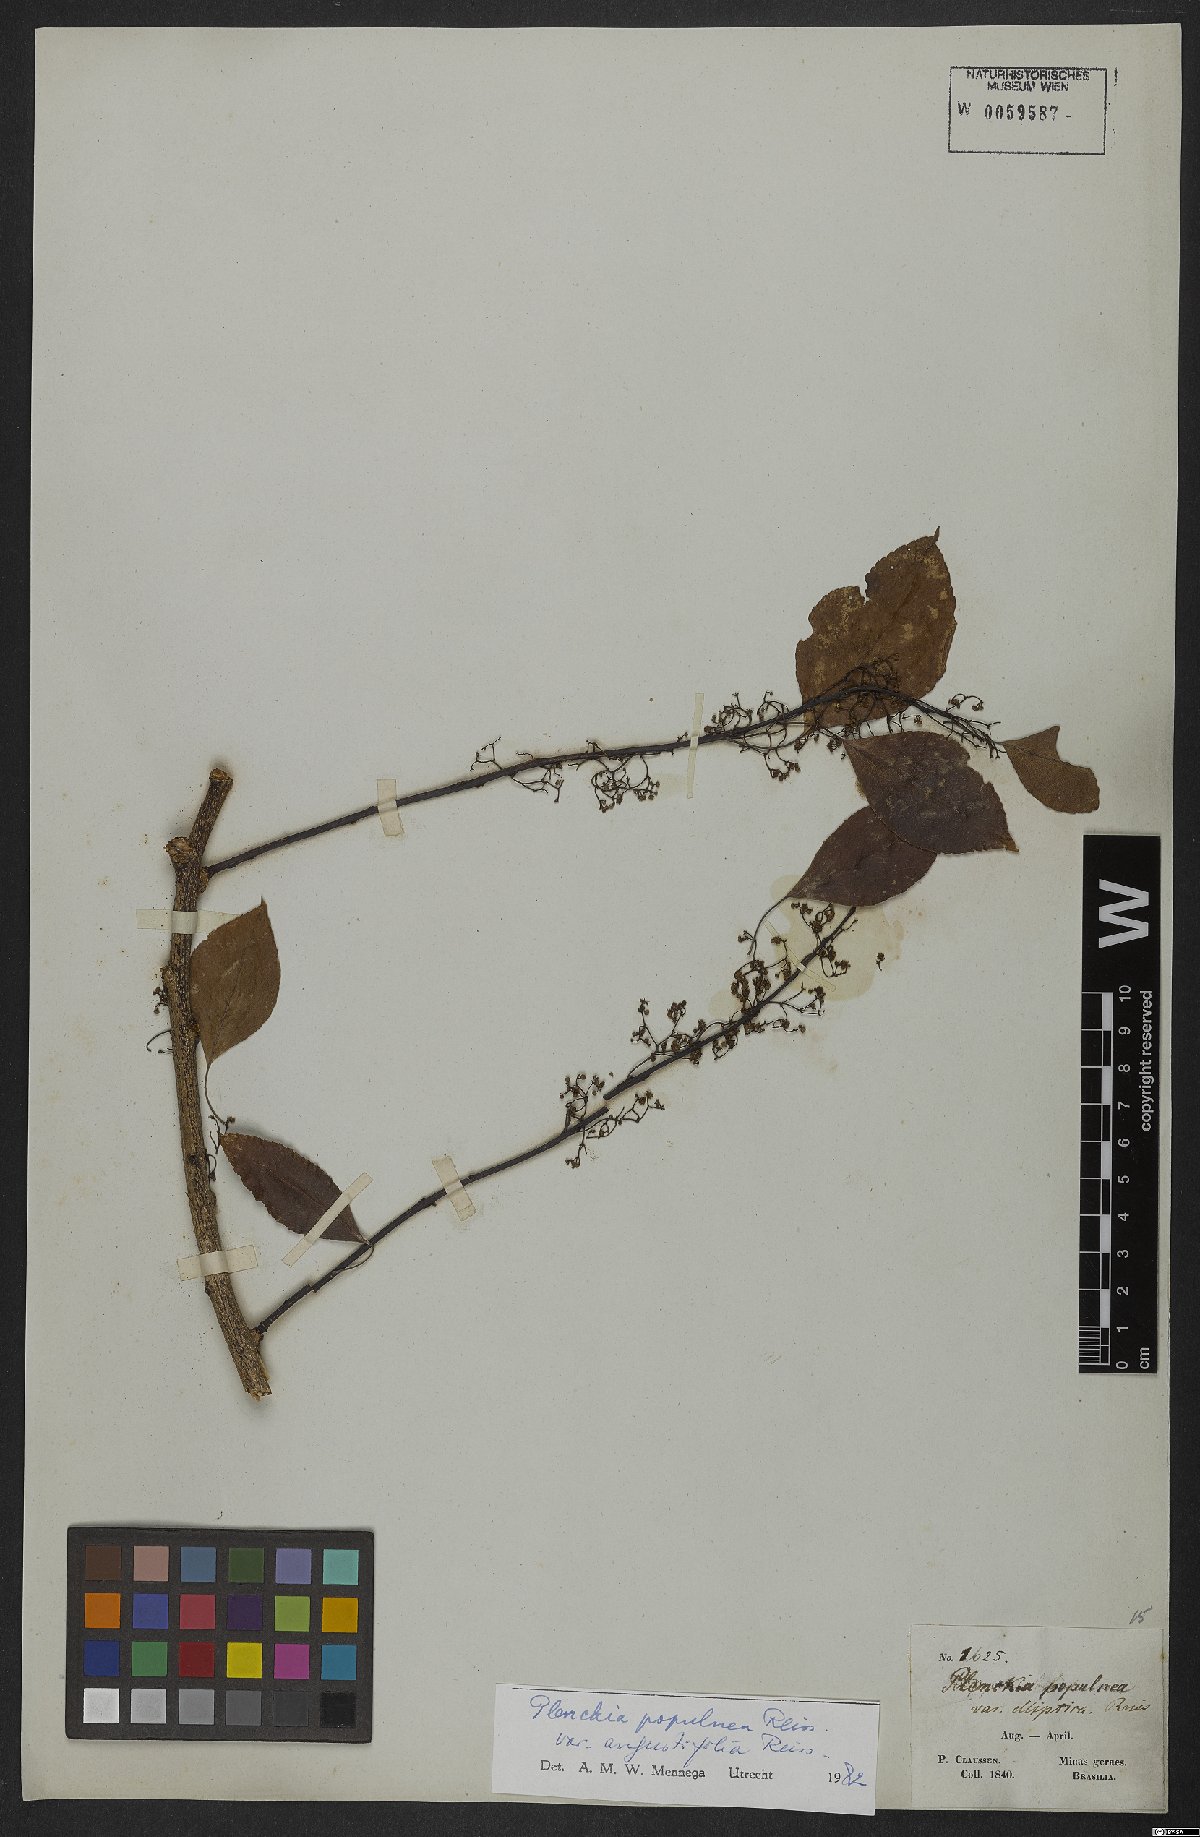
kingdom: Plantae
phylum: Tracheophyta
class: Magnoliopsida
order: Celastrales
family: Celastraceae
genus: Plenckia
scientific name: Plenckia populnea
